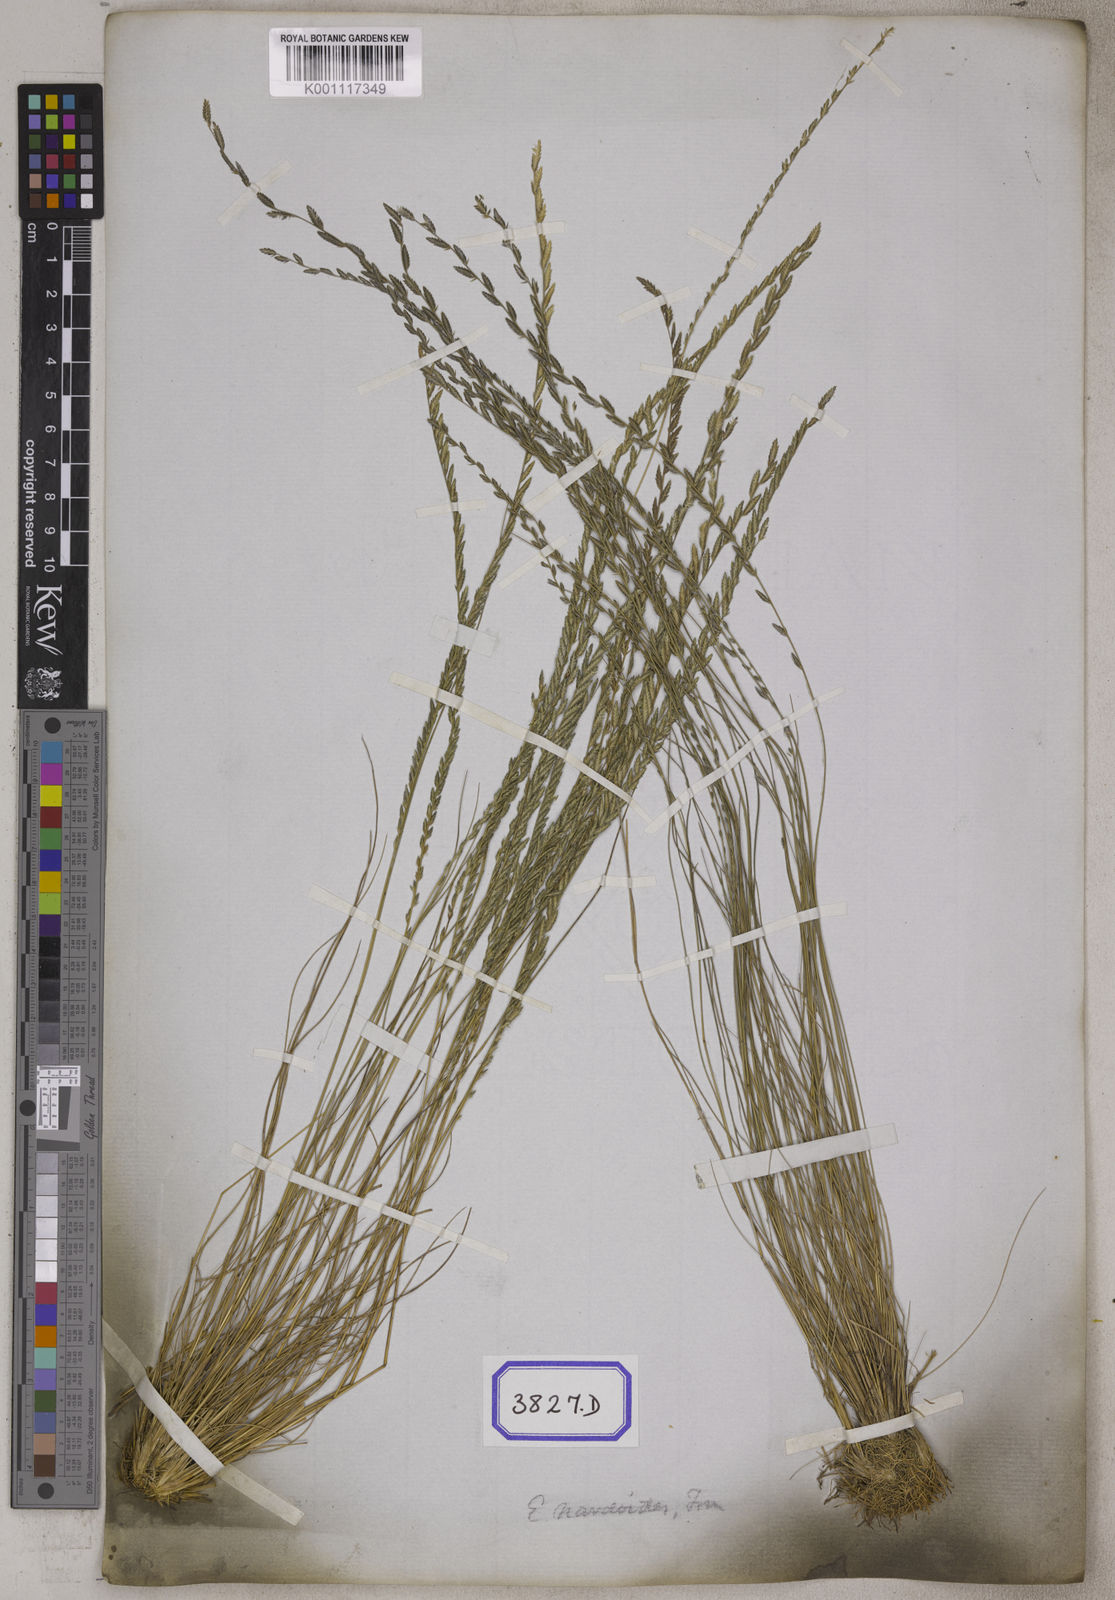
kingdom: Plantae
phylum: Tracheophyta
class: Liliopsida
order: Poales
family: Poaceae
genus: Eragrostis
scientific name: Eragrostis
